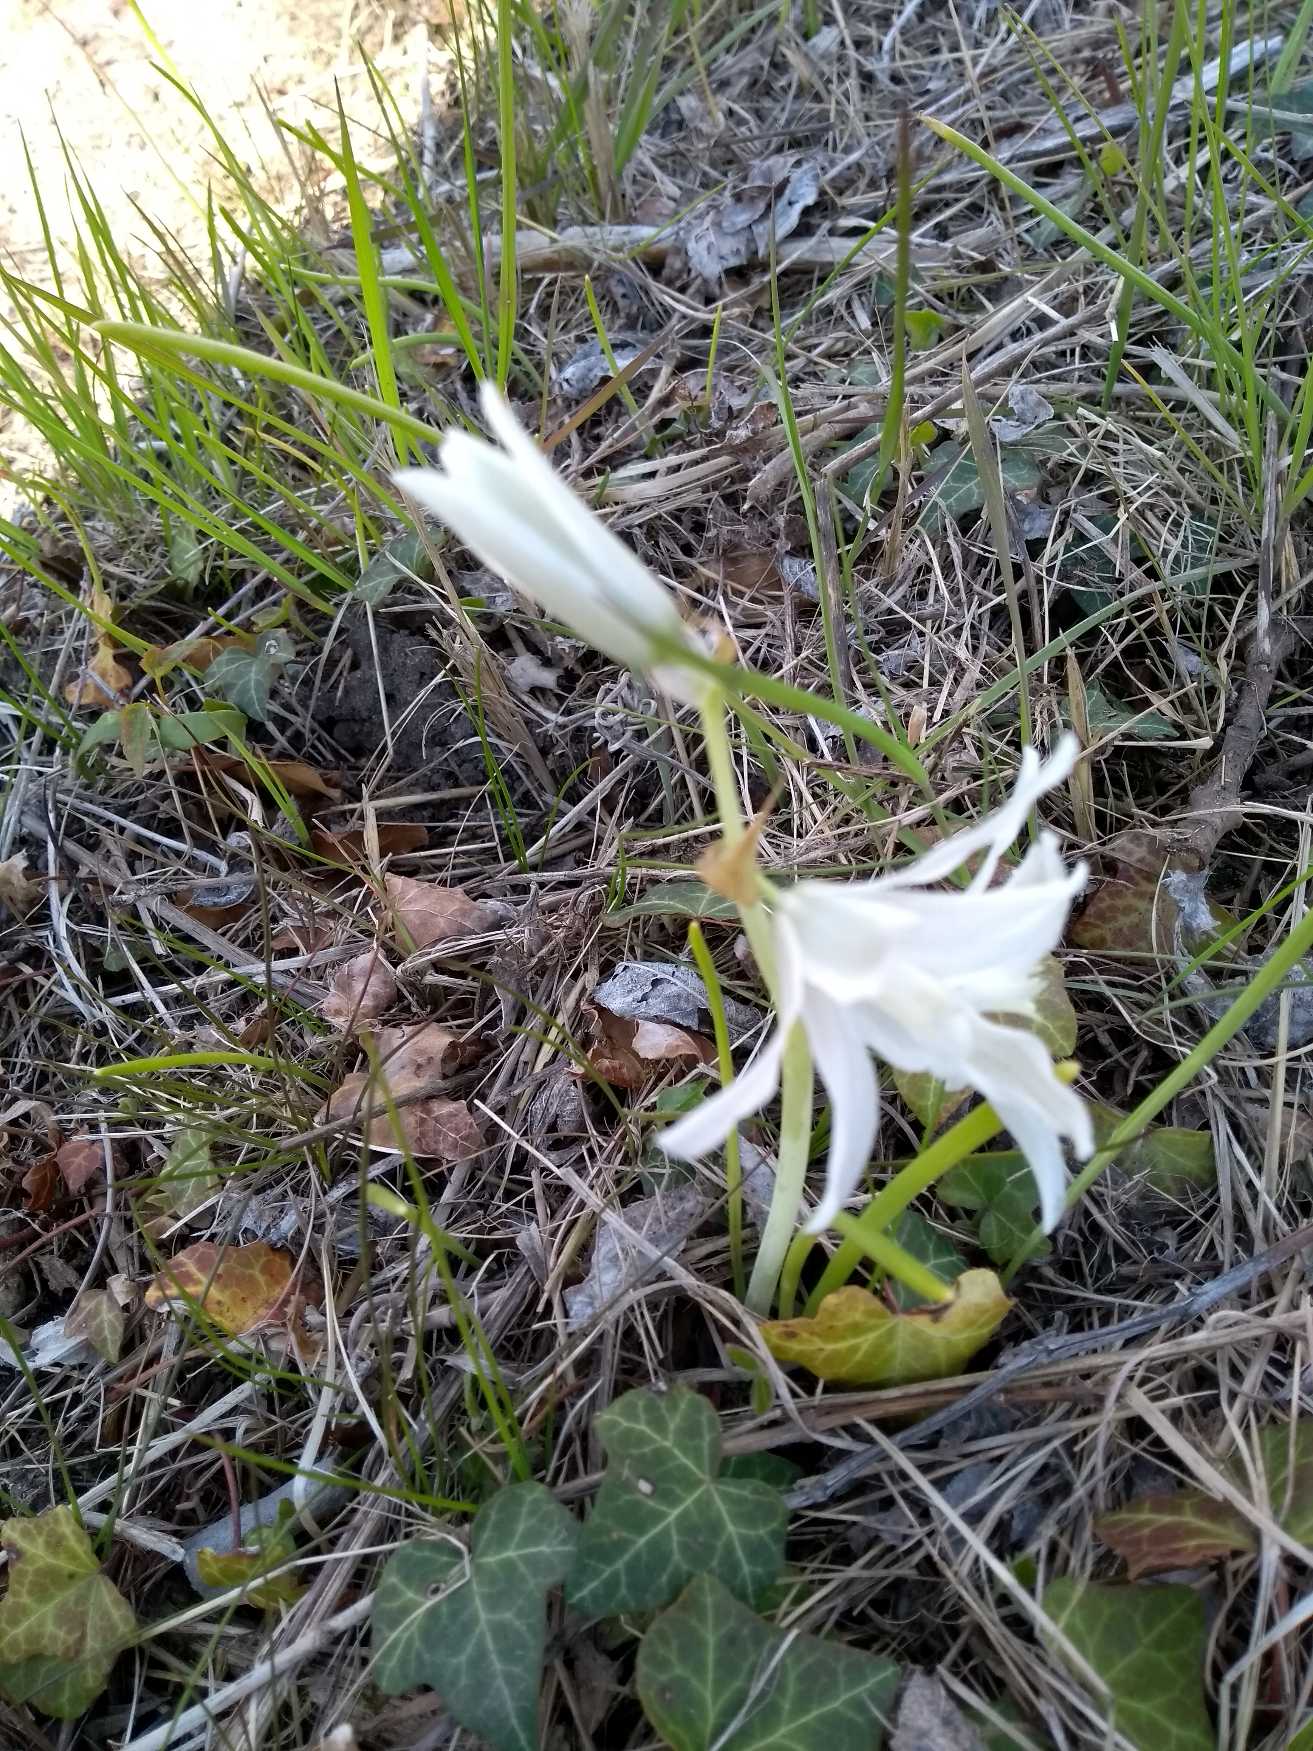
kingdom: Plantae
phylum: Tracheophyta
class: Liliopsida
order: Asparagales
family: Asparagaceae
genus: Ornithogalum
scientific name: Ornithogalum nutans
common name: Nikkende fuglemælk
